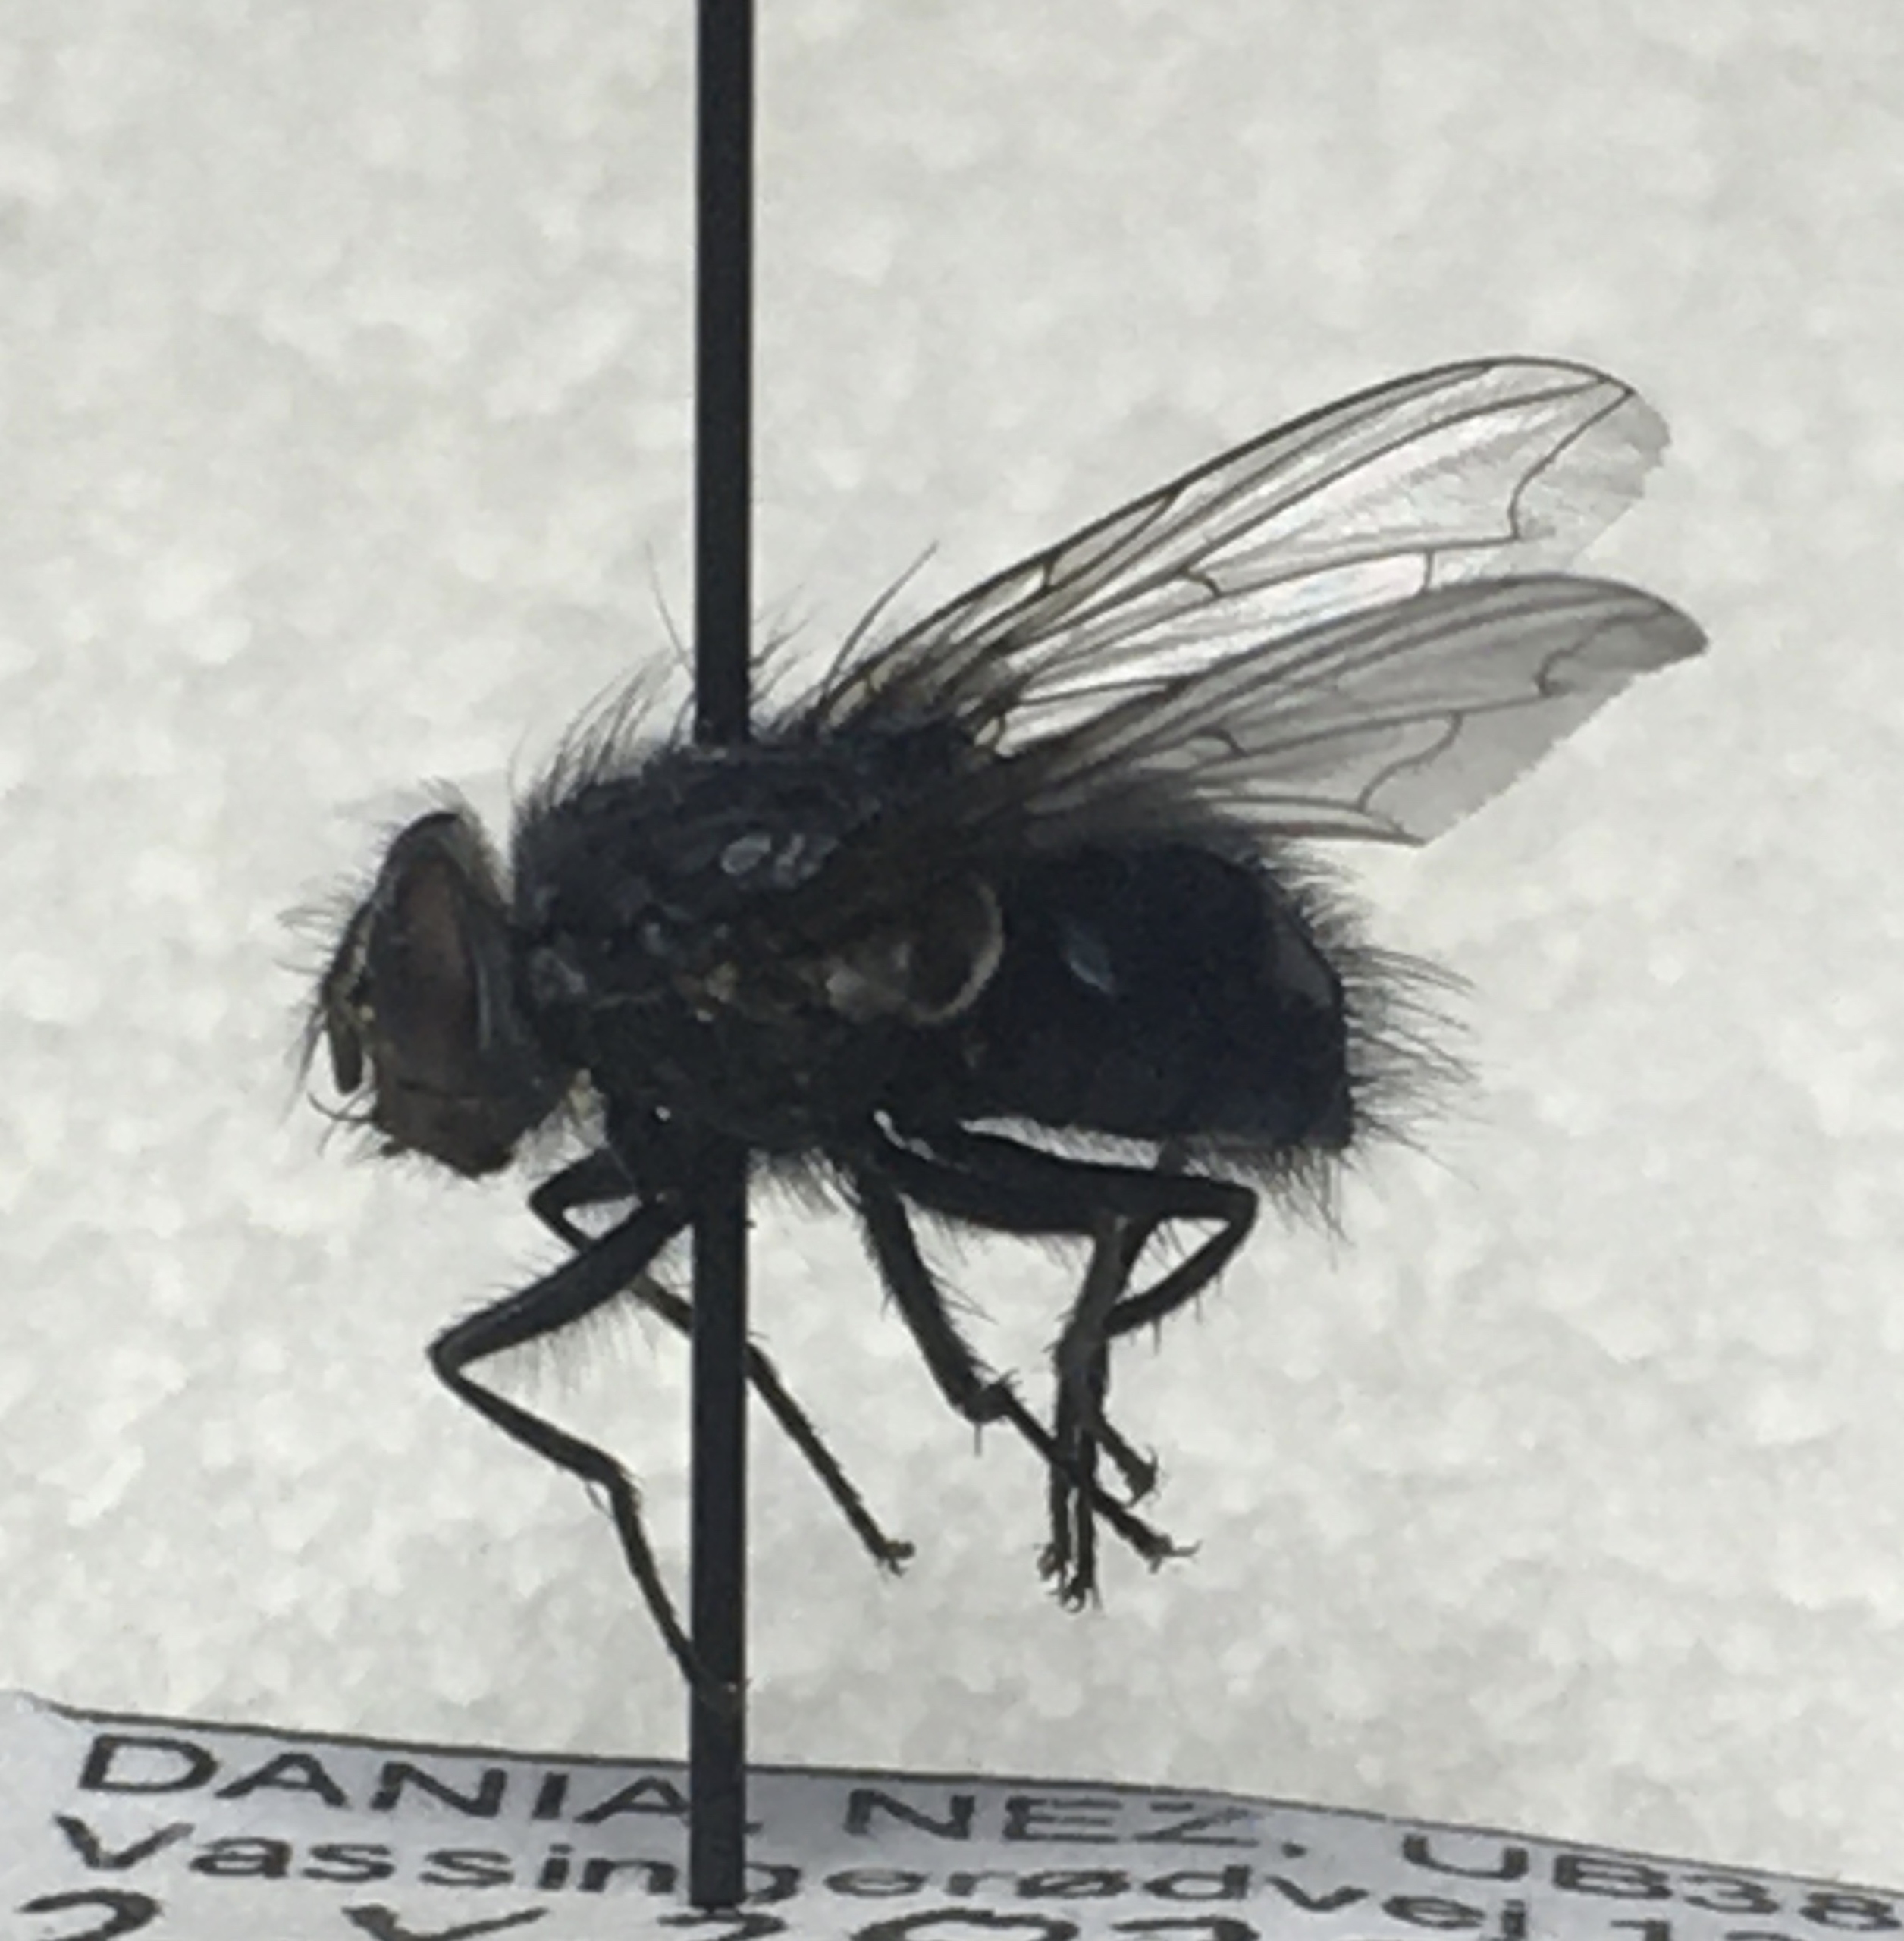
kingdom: Animalia
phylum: Arthropoda
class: Insecta
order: Diptera
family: Calliphoridae
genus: Calliphora
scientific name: Calliphora vicina
